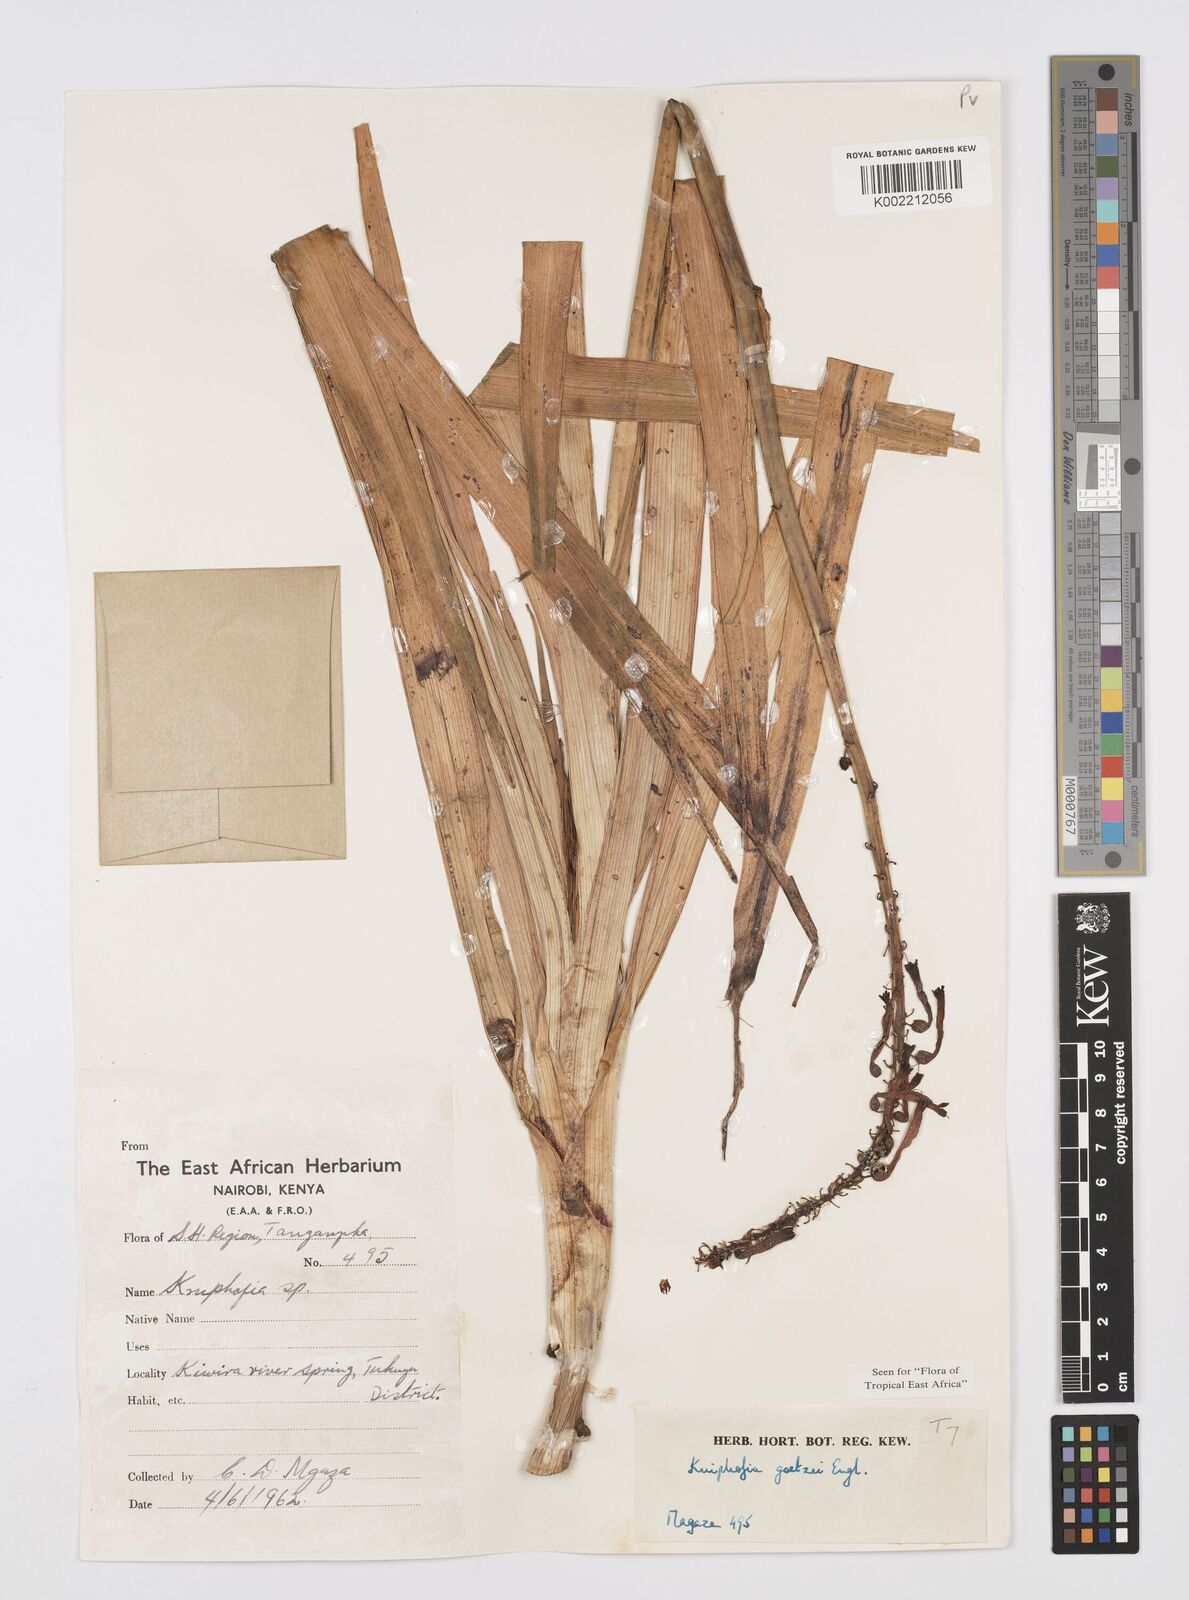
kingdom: Plantae
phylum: Tracheophyta
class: Liliopsida
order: Asparagales
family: Asphodelaceae
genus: Kniphofia
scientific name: Kniphofia goetzei
